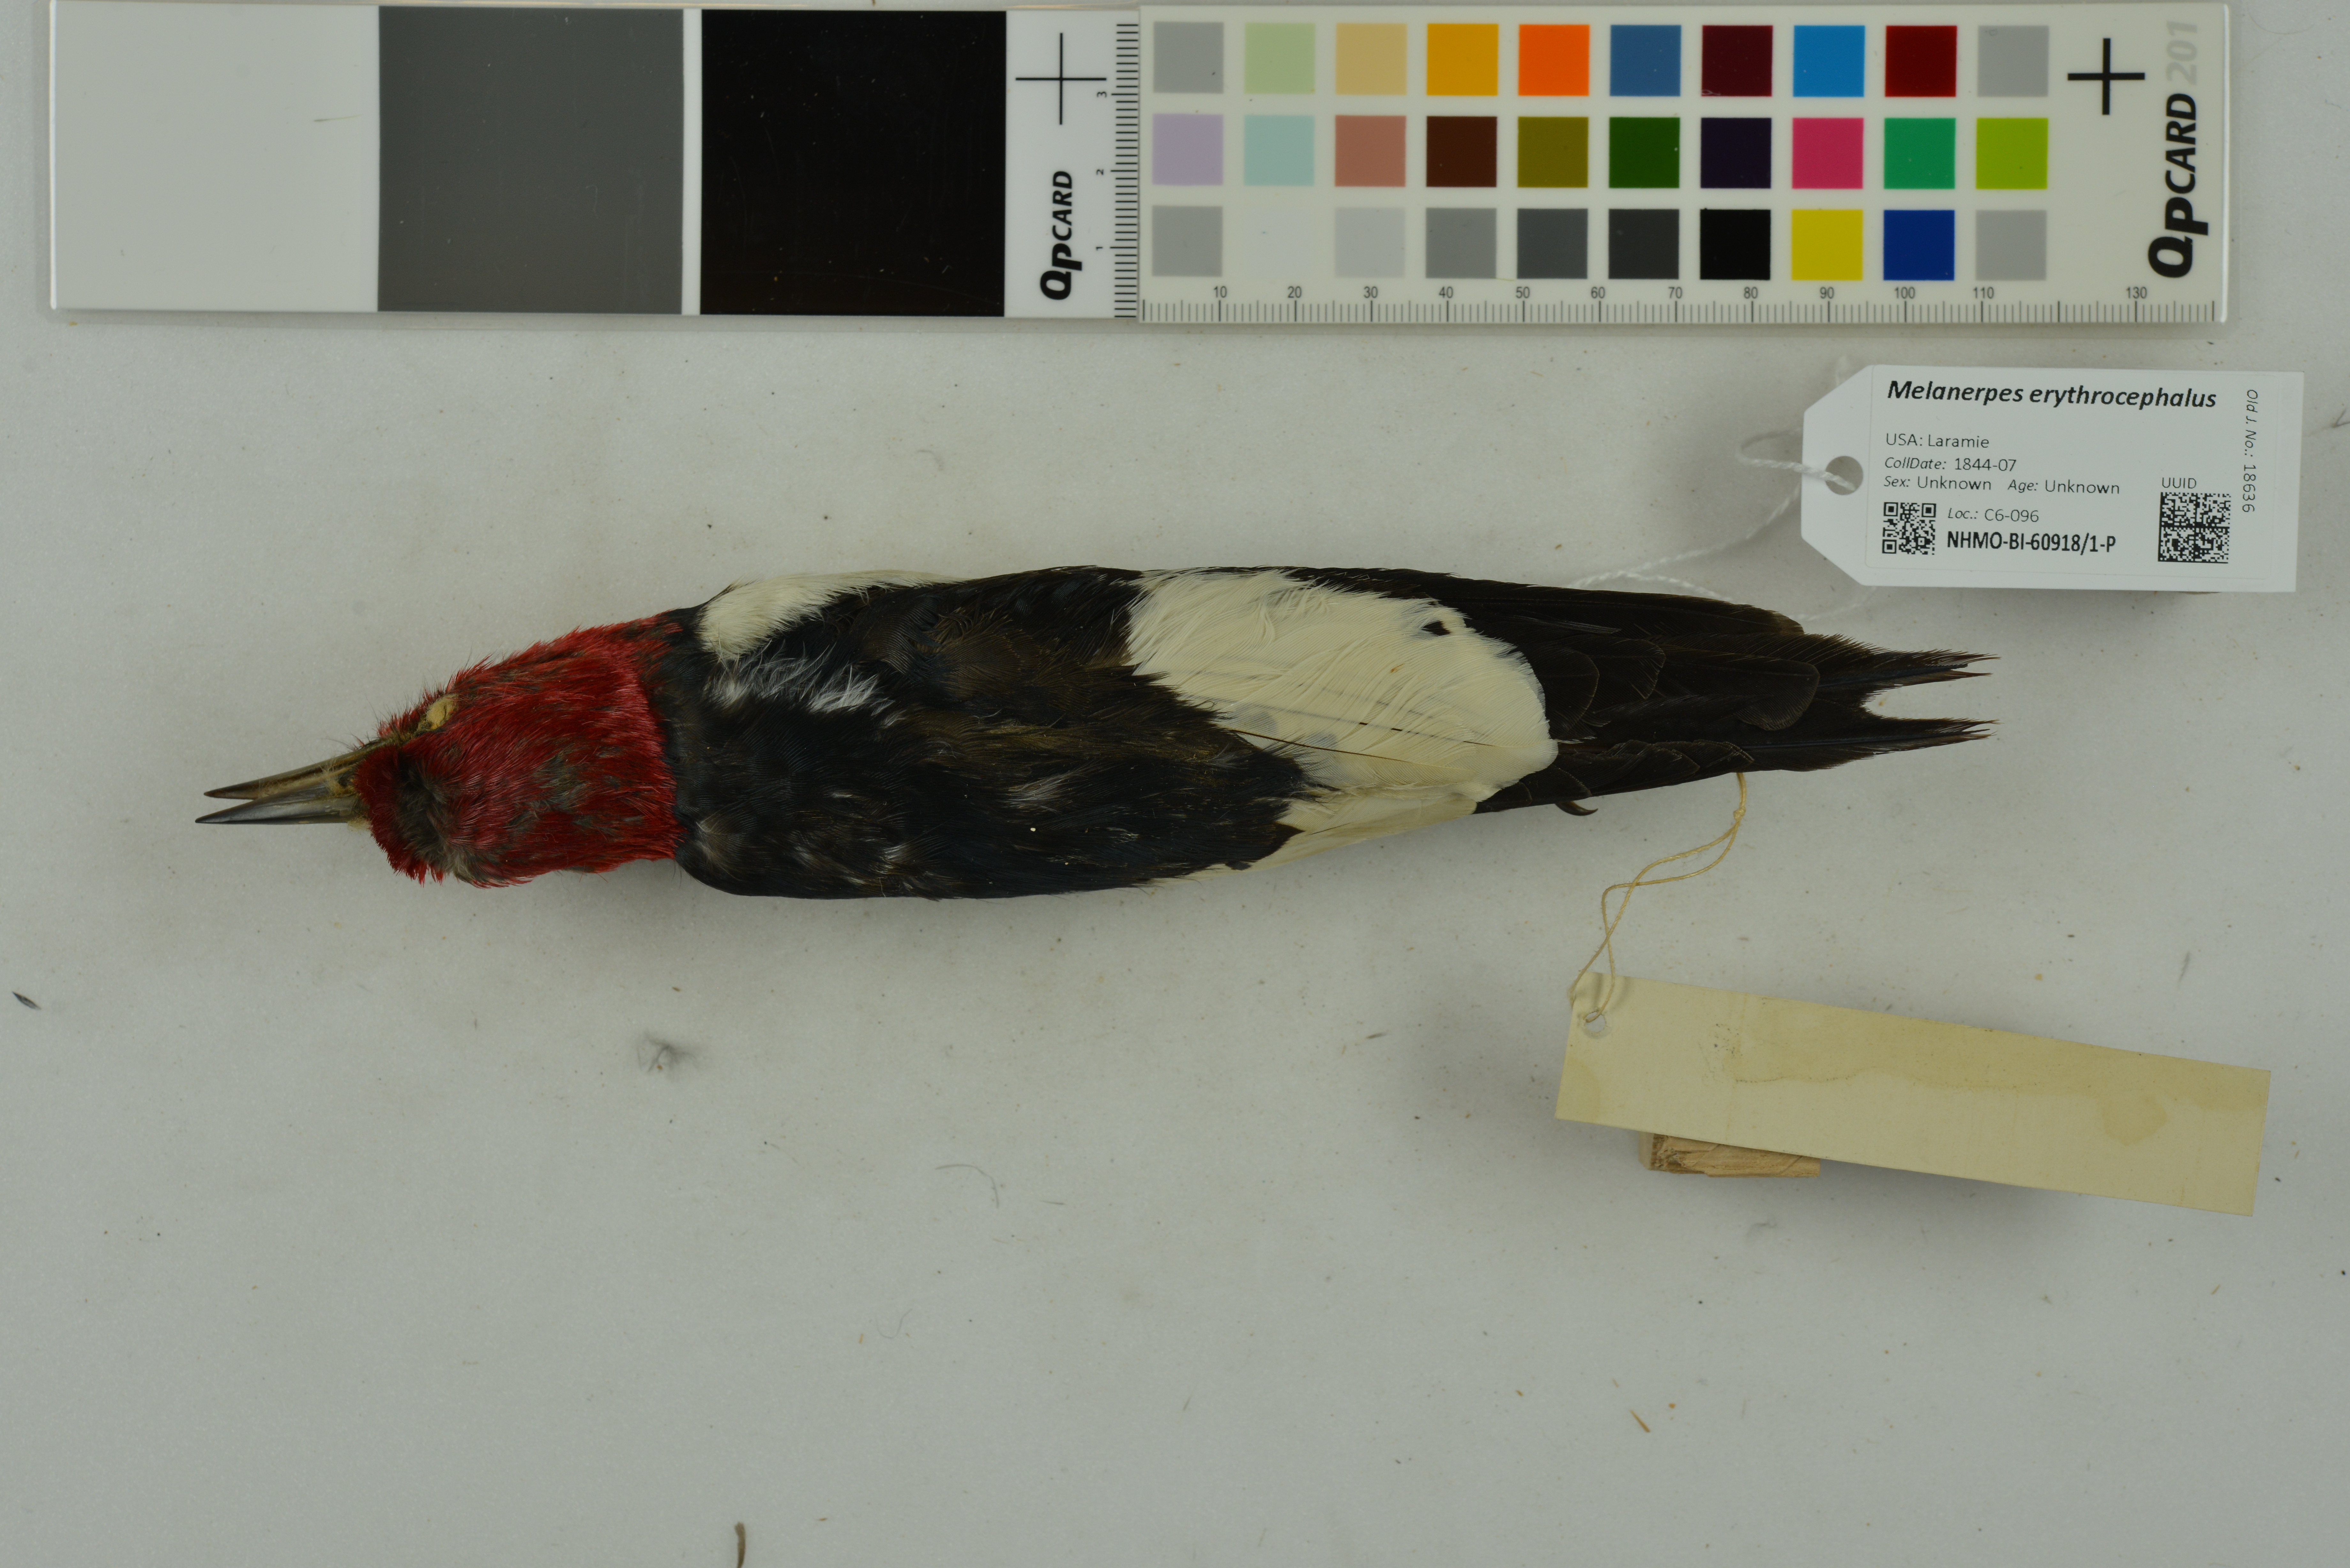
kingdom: Animalia
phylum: Chordata
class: Aves
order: Piciformes
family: Picidae
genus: Melanerpes
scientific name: Melanerpes erythrocephalus
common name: Red-headed woodpecker
